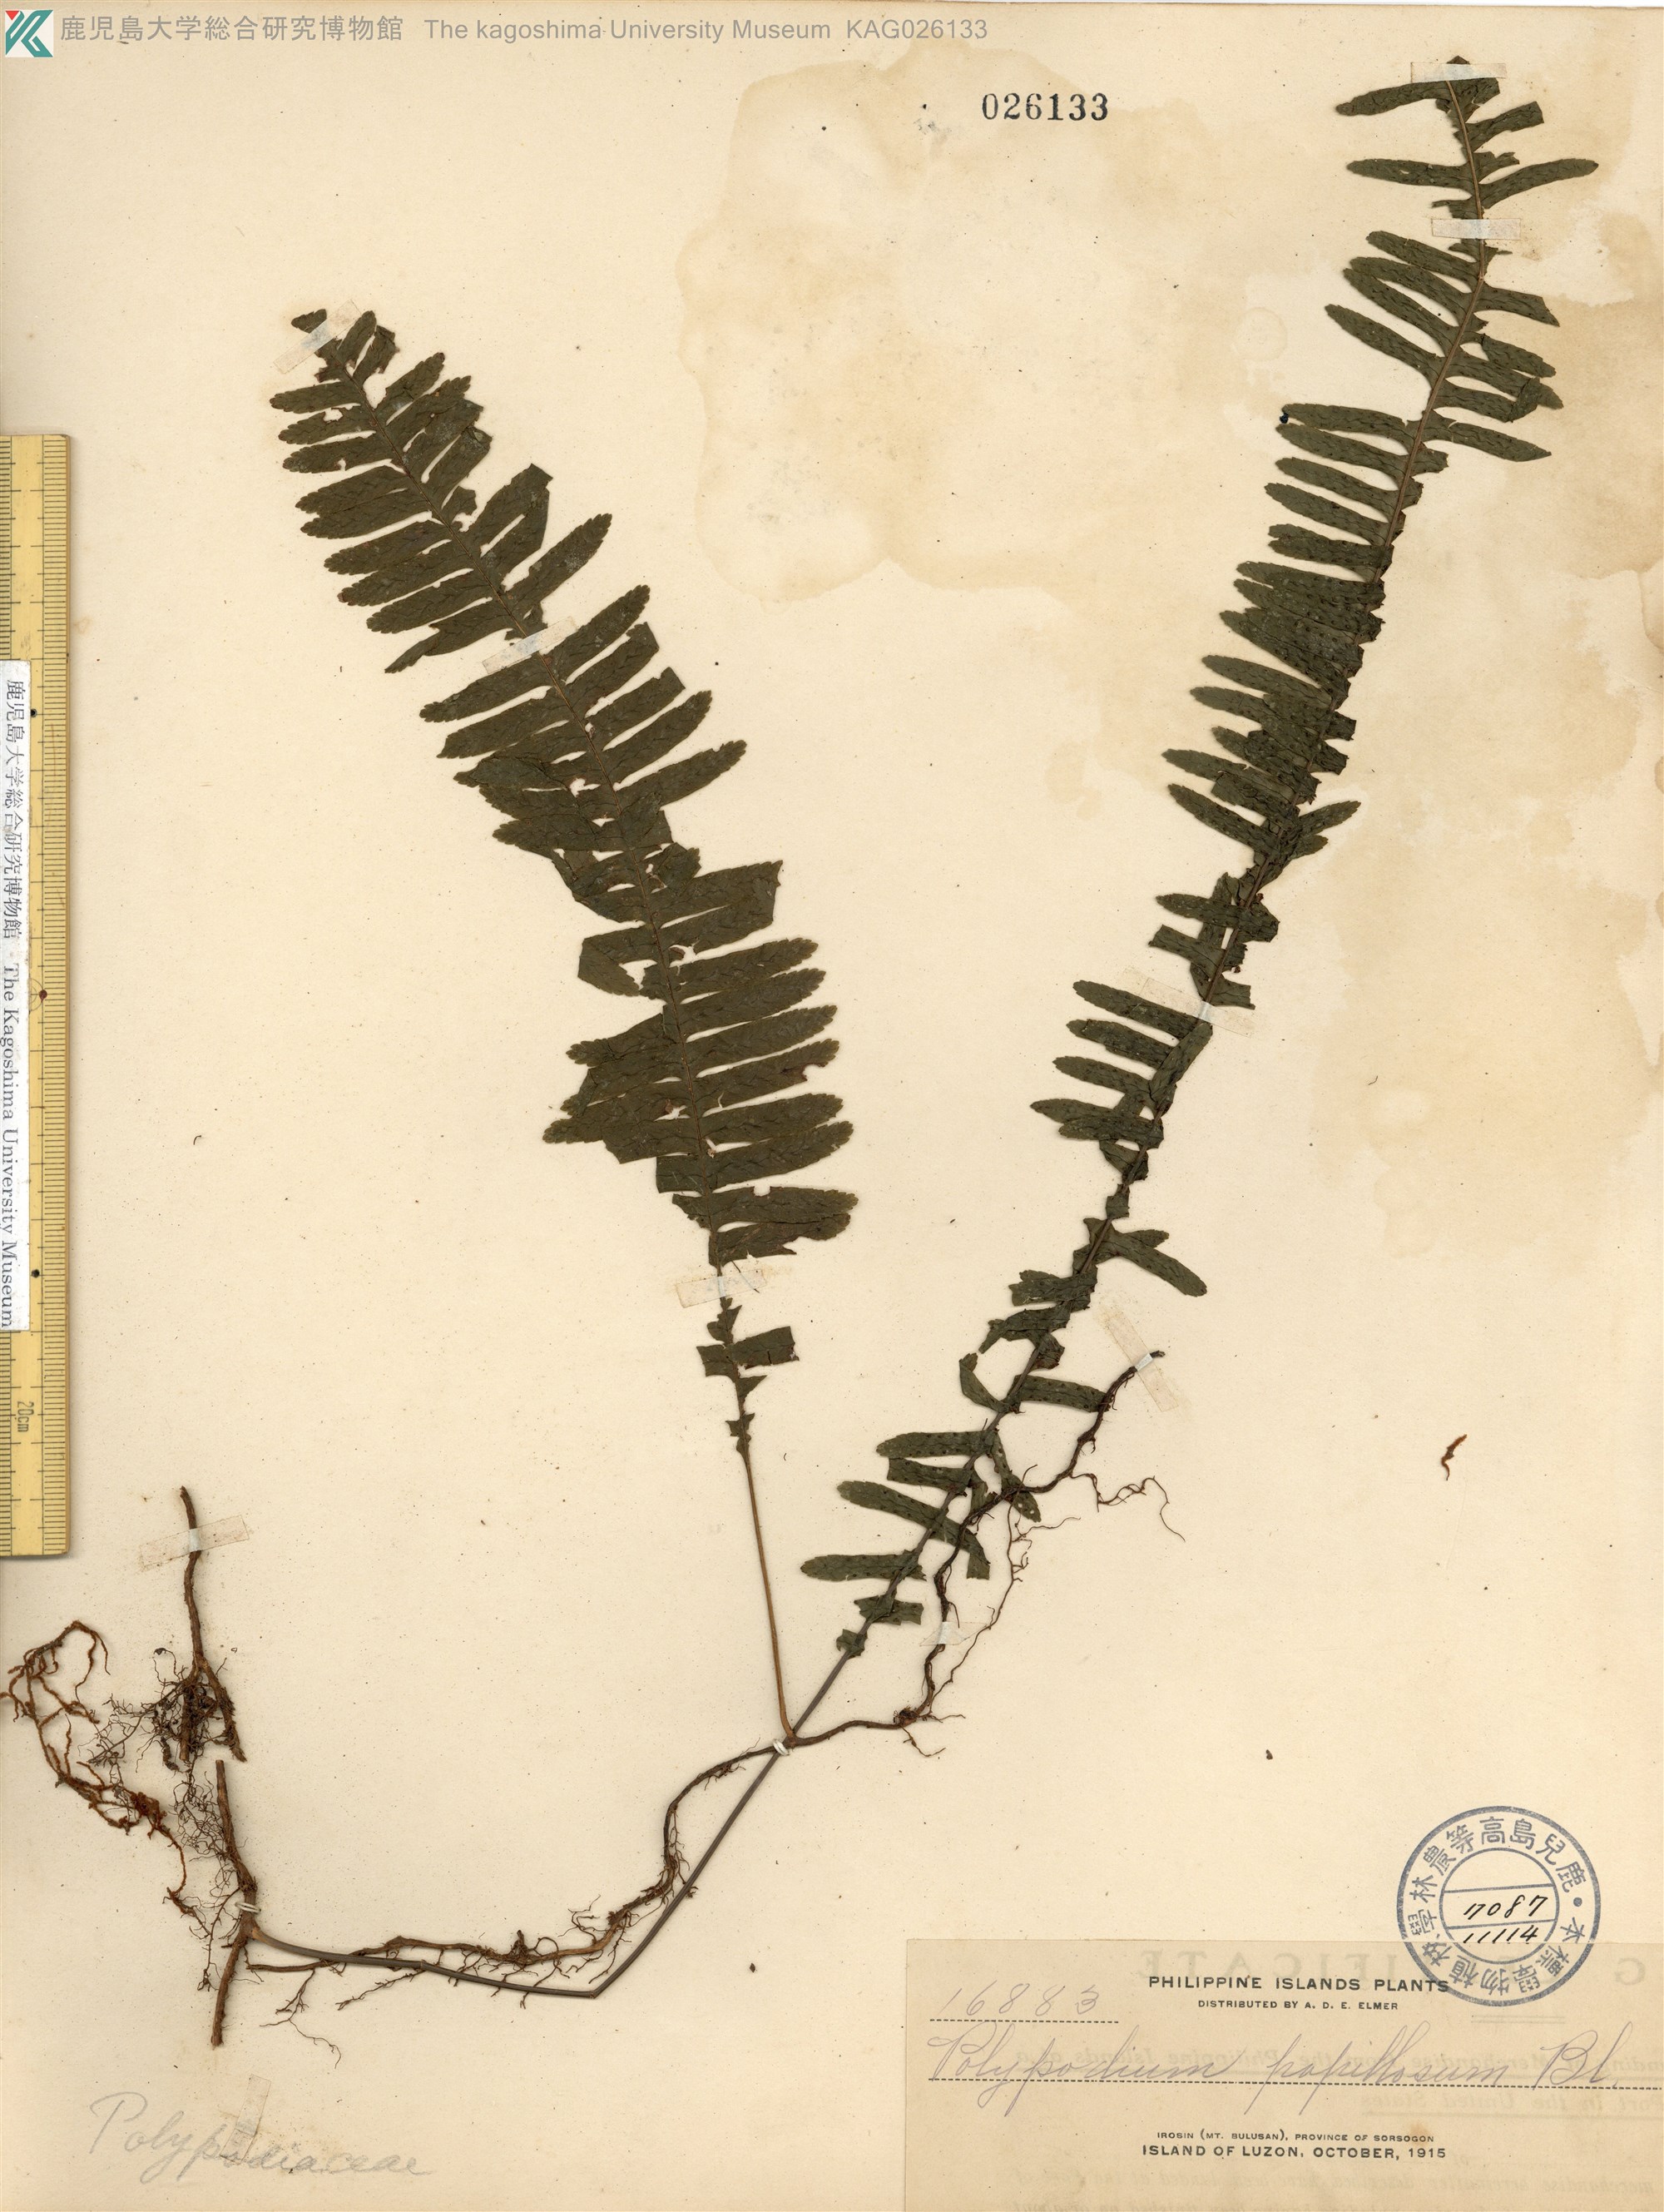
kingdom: Plantae
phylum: Tracheophyta
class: Polypodiopsida
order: Polypodiales
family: Polypodiaceae
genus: Thylacopteris
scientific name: Thylacopteris
